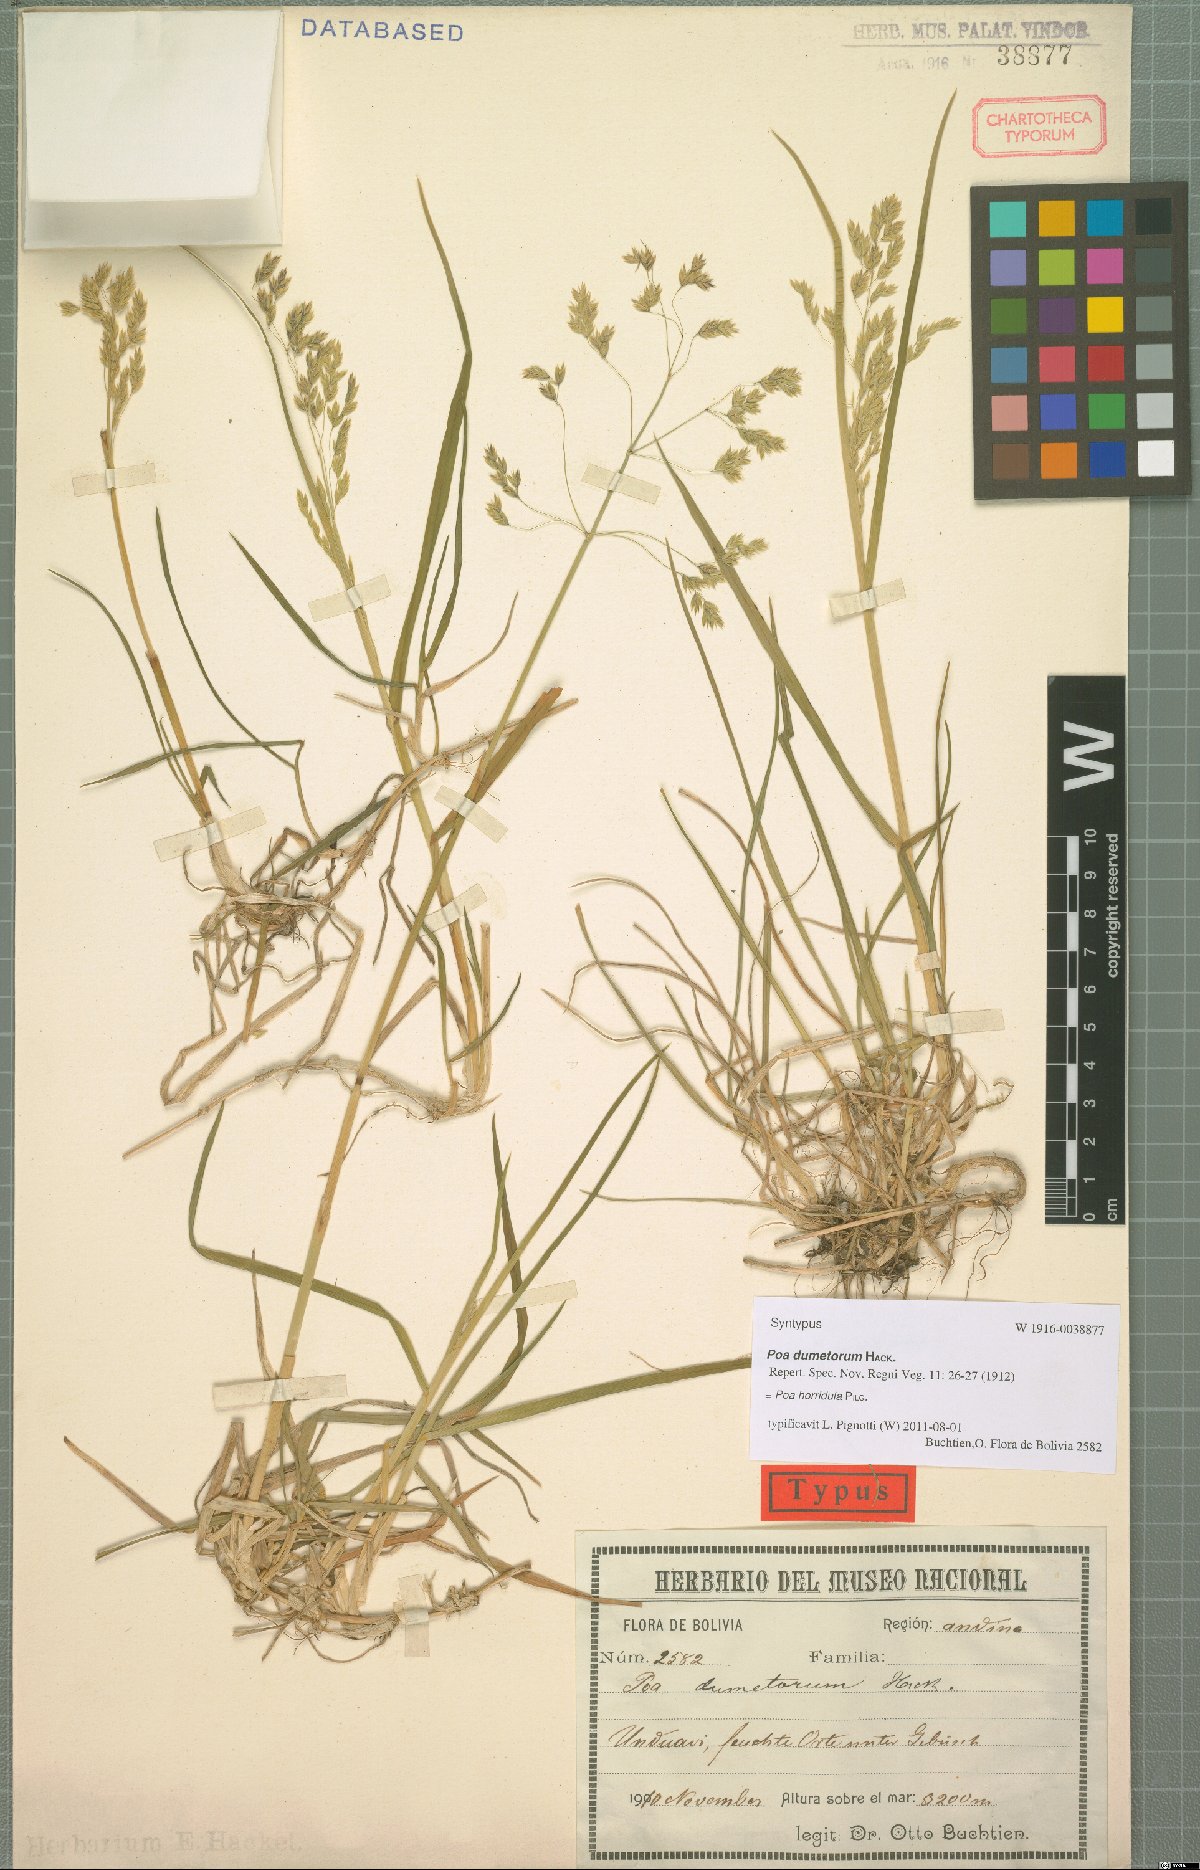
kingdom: Plantae
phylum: Tracheophyta
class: Liliopsida
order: Poales
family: Poaceae
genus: Poa
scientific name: Poa horridula
